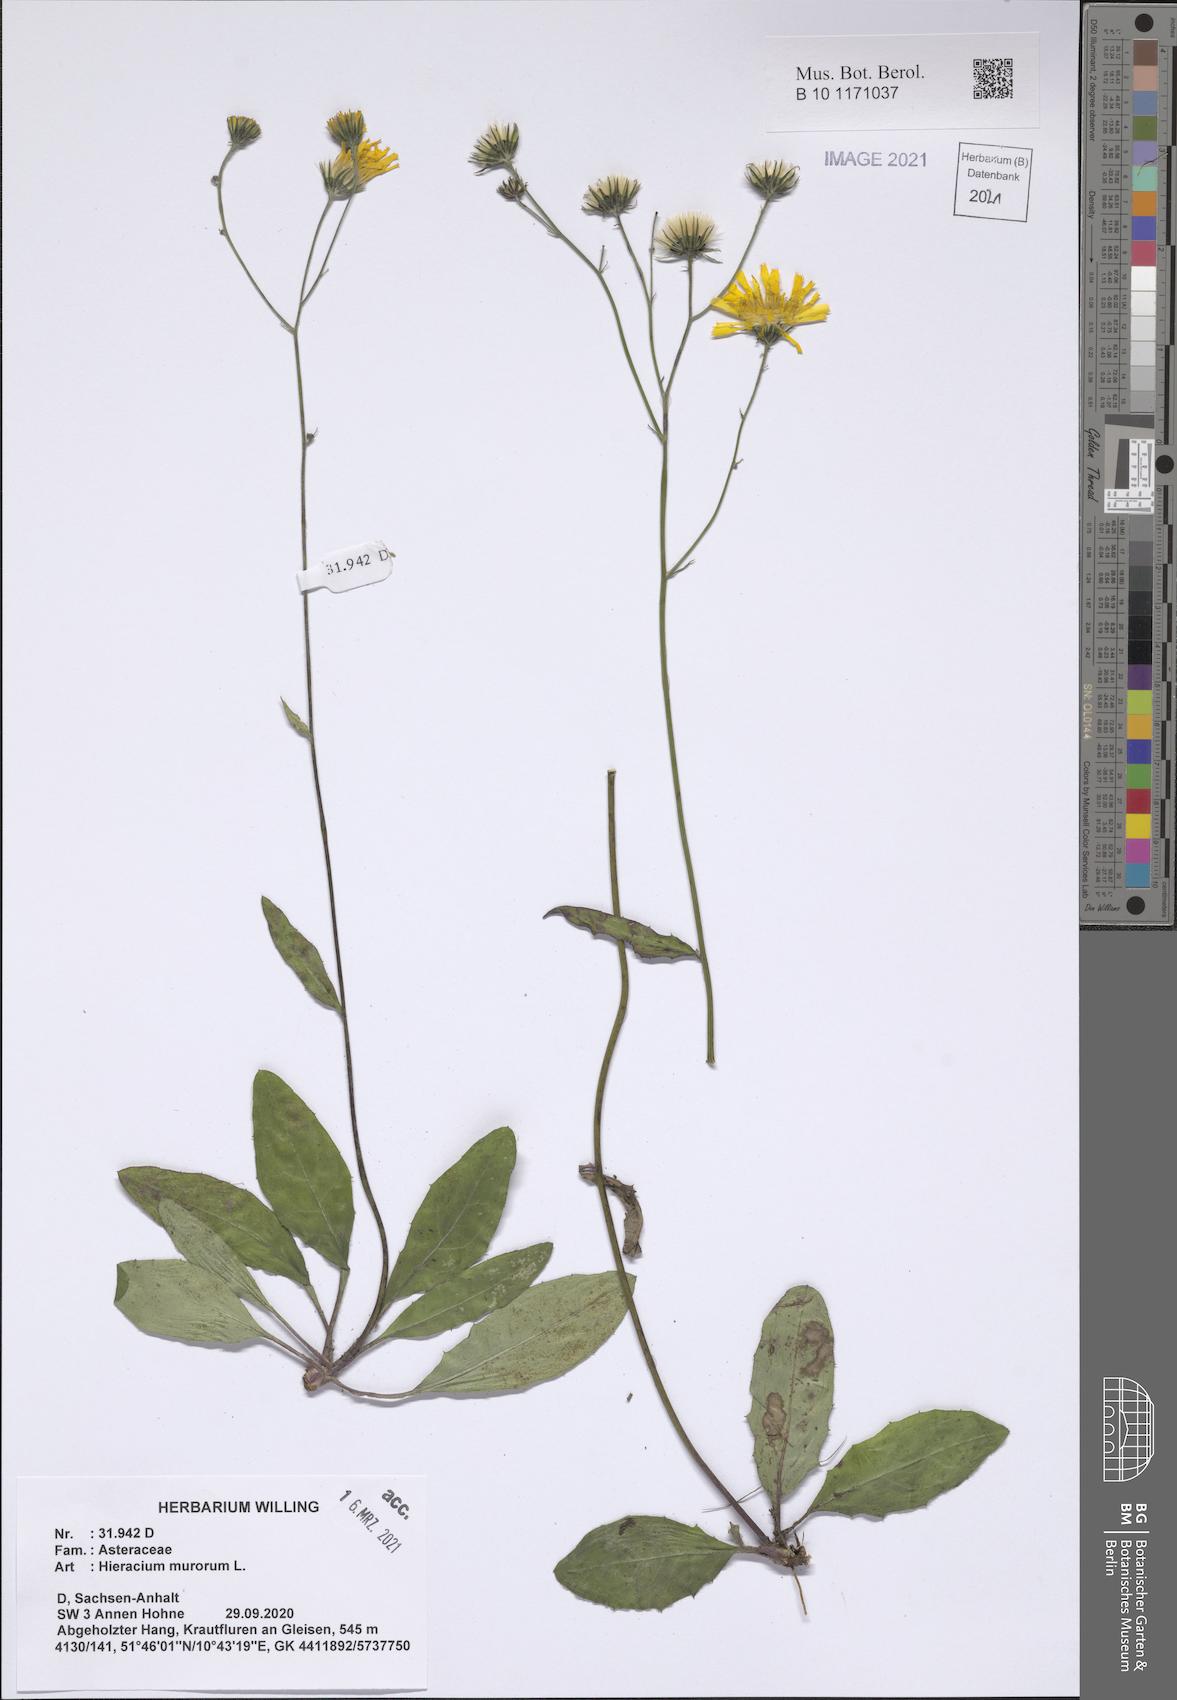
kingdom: Plantae
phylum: Tracheophyta
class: Magnoliopsida
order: Asterales
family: Asteraceae
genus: Hieracium
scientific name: Hieracium murorum
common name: Wall hawkweed
